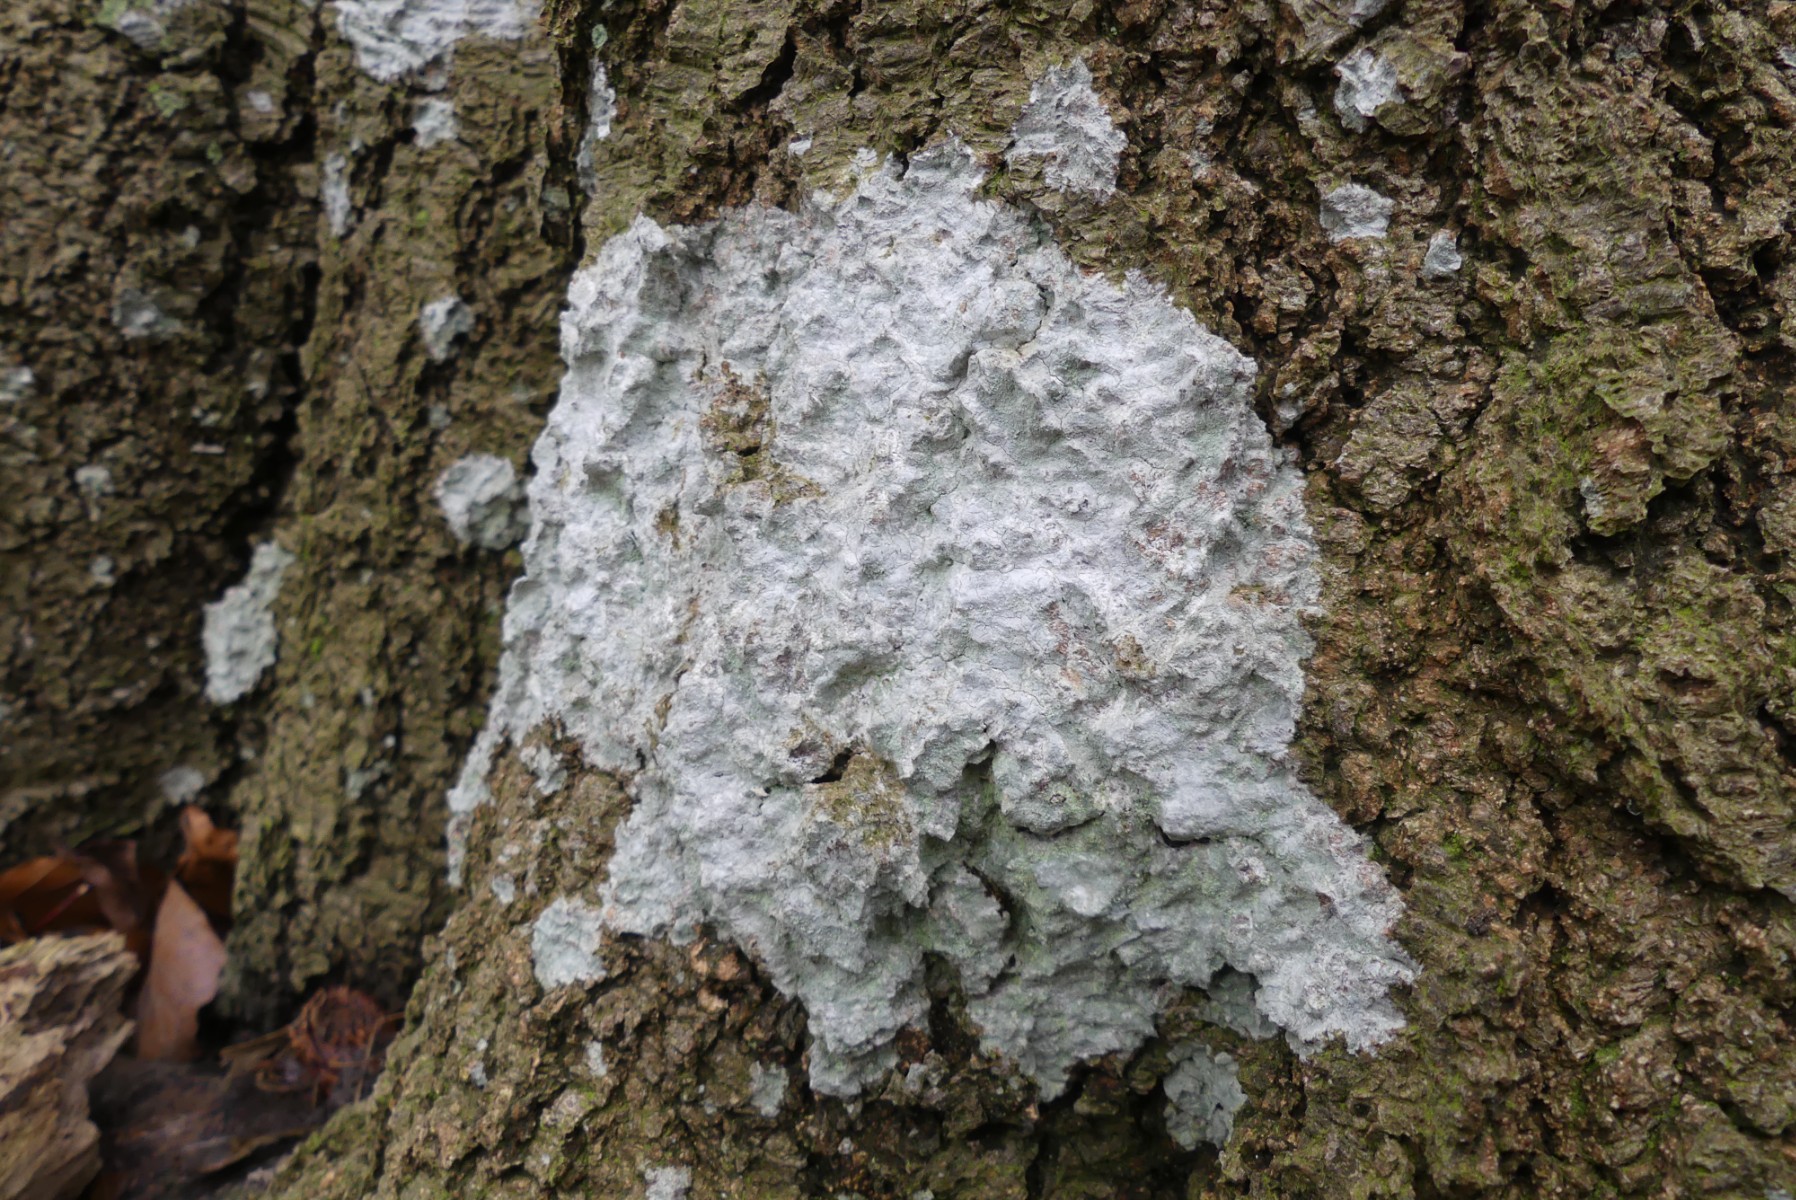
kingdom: Fungi
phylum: Ascomycota
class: Lecanoromycetes
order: Ostropales
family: Phlyctidaceae
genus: Phlyctis
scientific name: Phlyctis argena
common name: almindelig sølvlav
